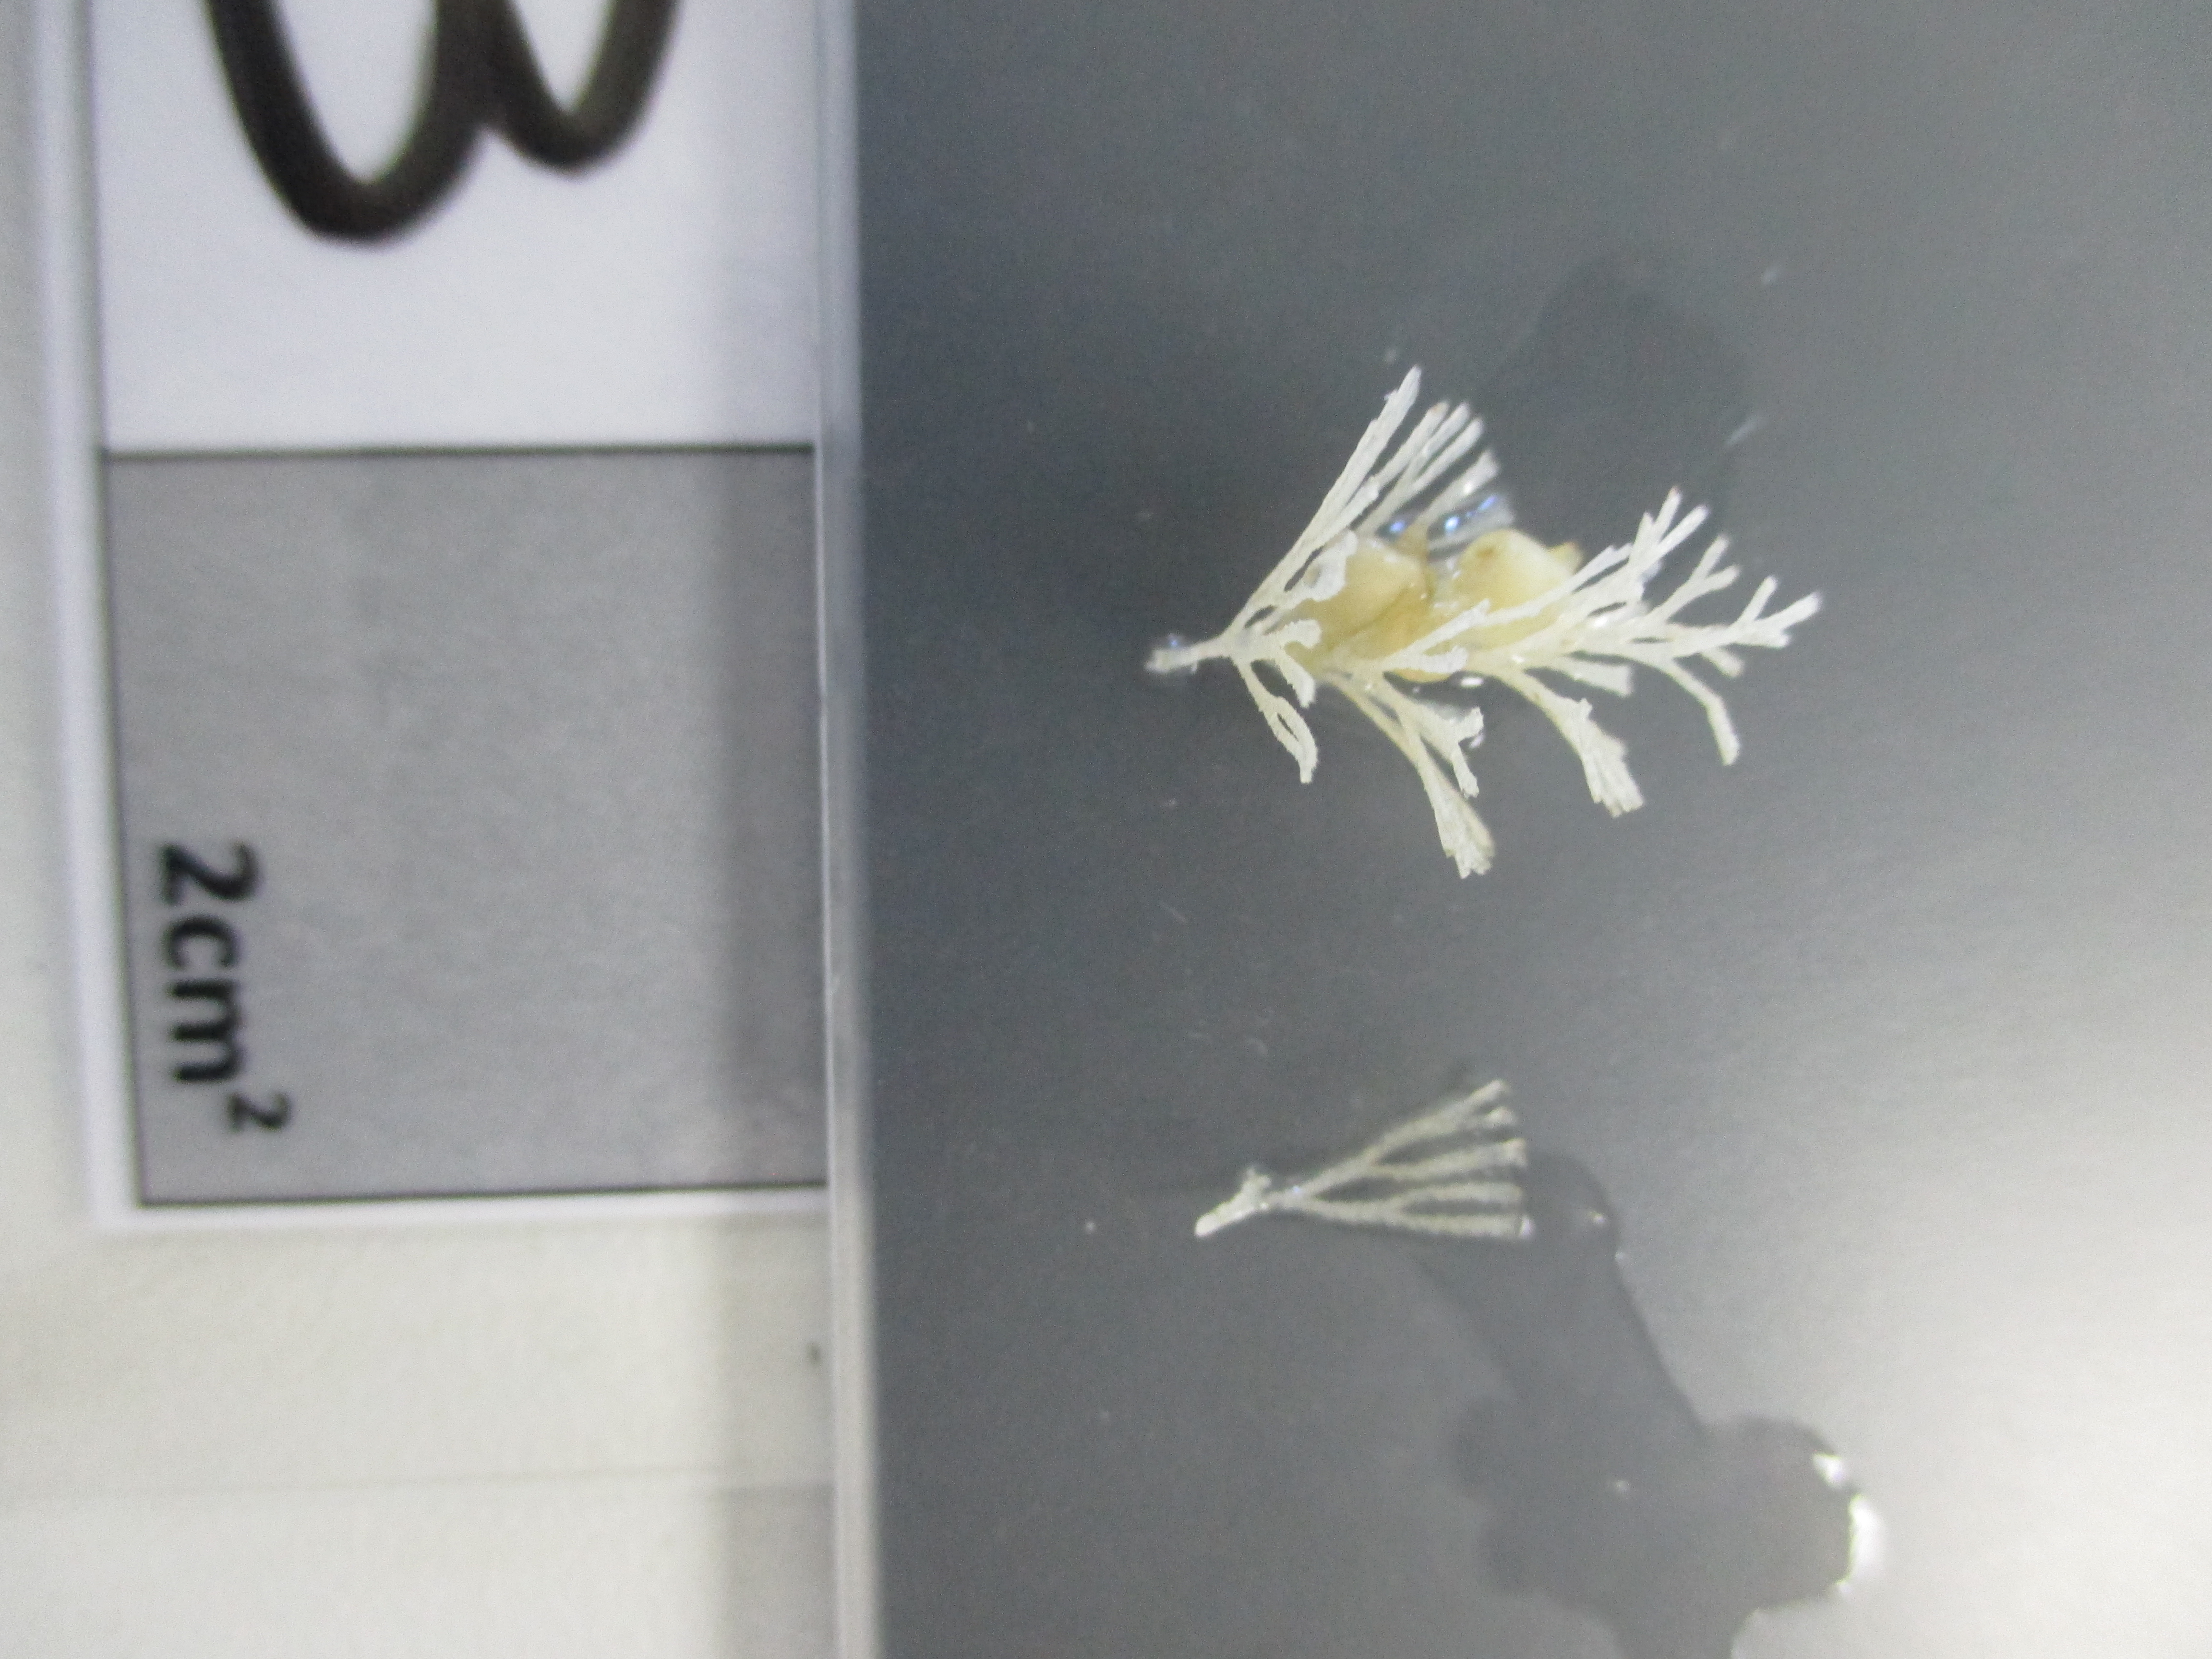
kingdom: Animalia
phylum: Bryozoa
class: Gymnolaemata
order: Cheilostomatida
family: Candidae
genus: Menipea
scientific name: Menipea marionensis
